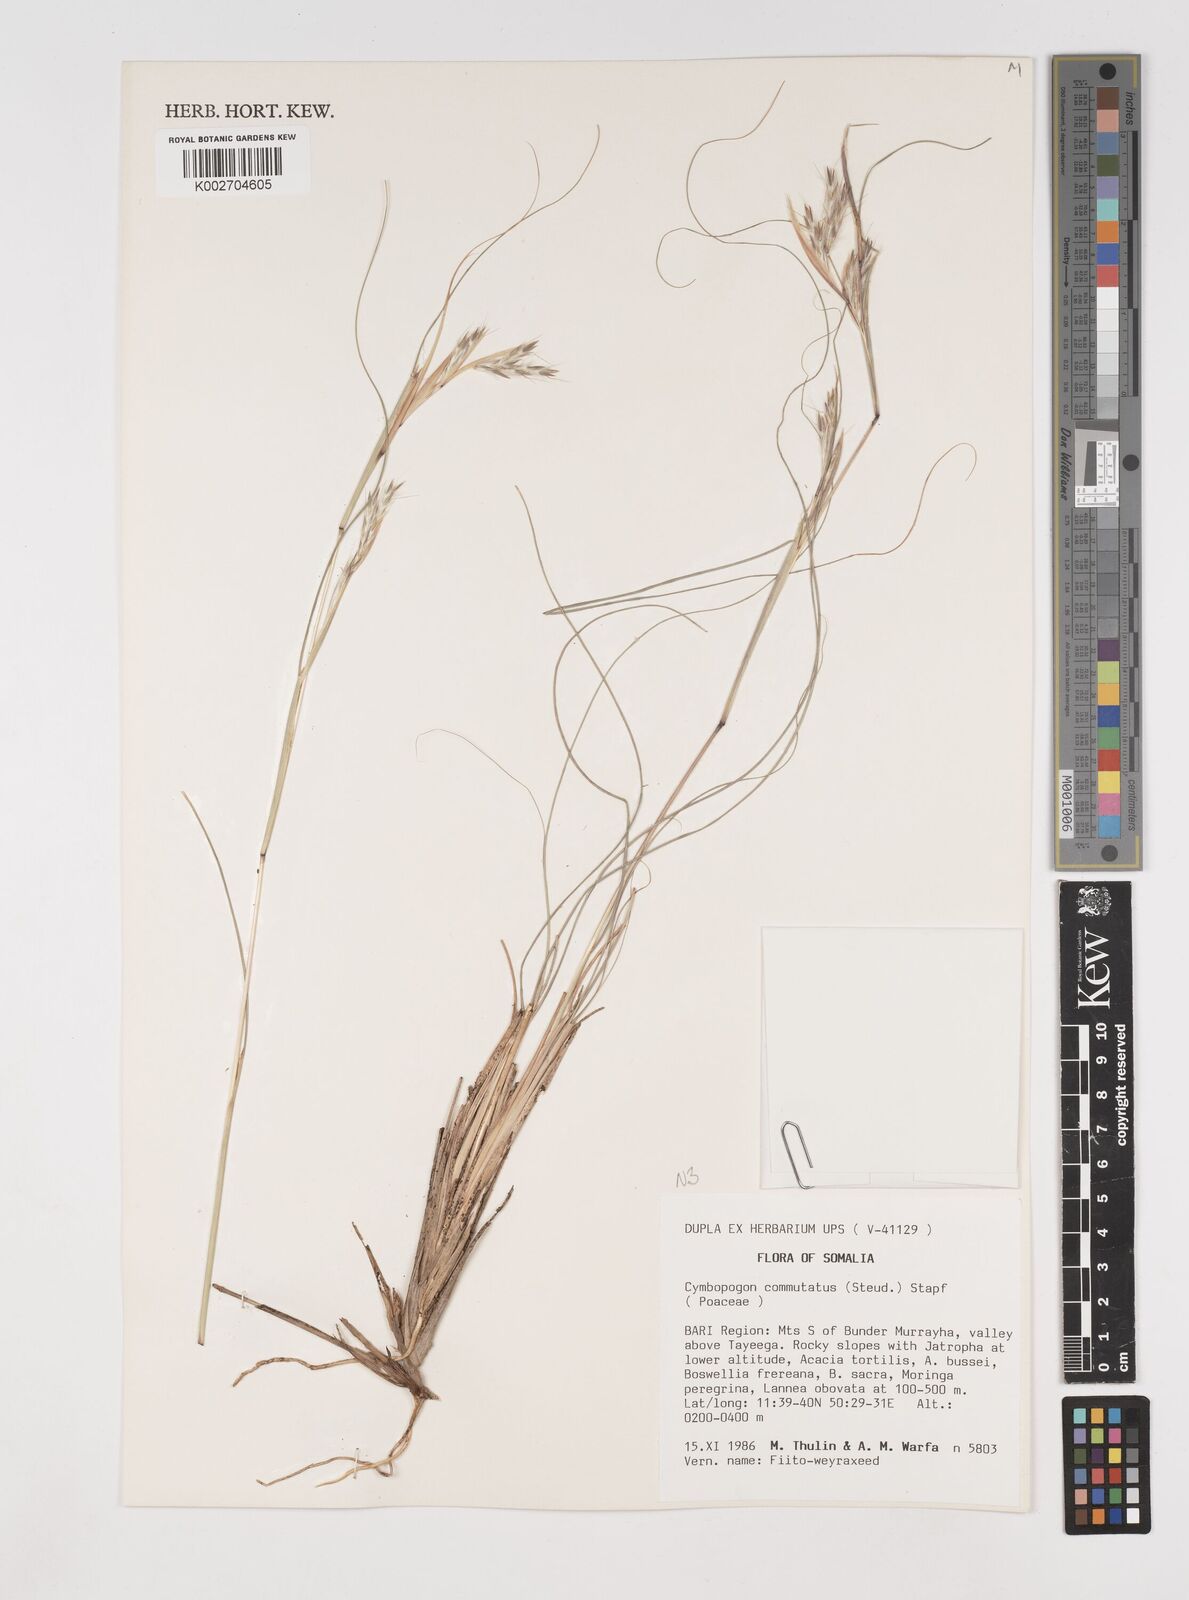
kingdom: Plantae
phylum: Tracheophyta
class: Liliopsida
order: Poales
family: Poaceae
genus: Cymbopogon
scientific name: Cymbopogon commutatus
